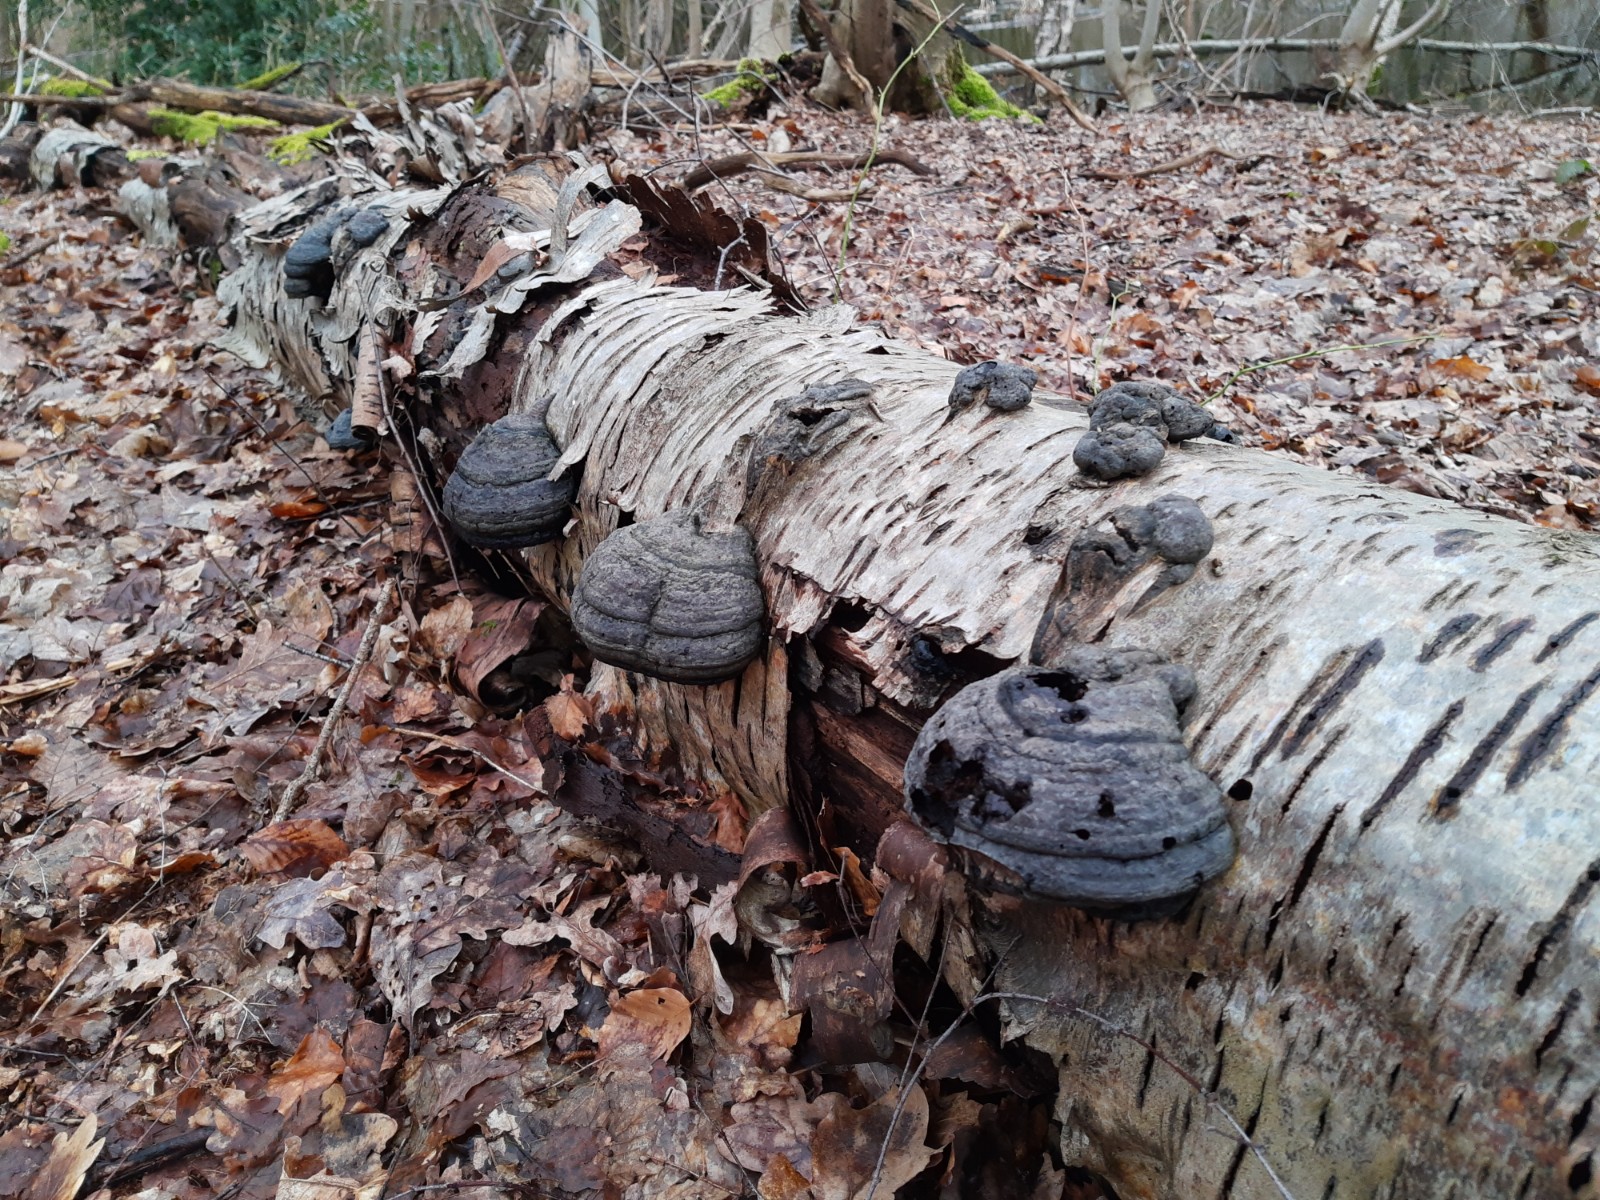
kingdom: Fungi
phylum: Basidiomycota
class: Agaricomycetes
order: Polyporales
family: Polyporaceae
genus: Fomes
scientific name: Fomes fomentarius
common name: tøndersvamp
